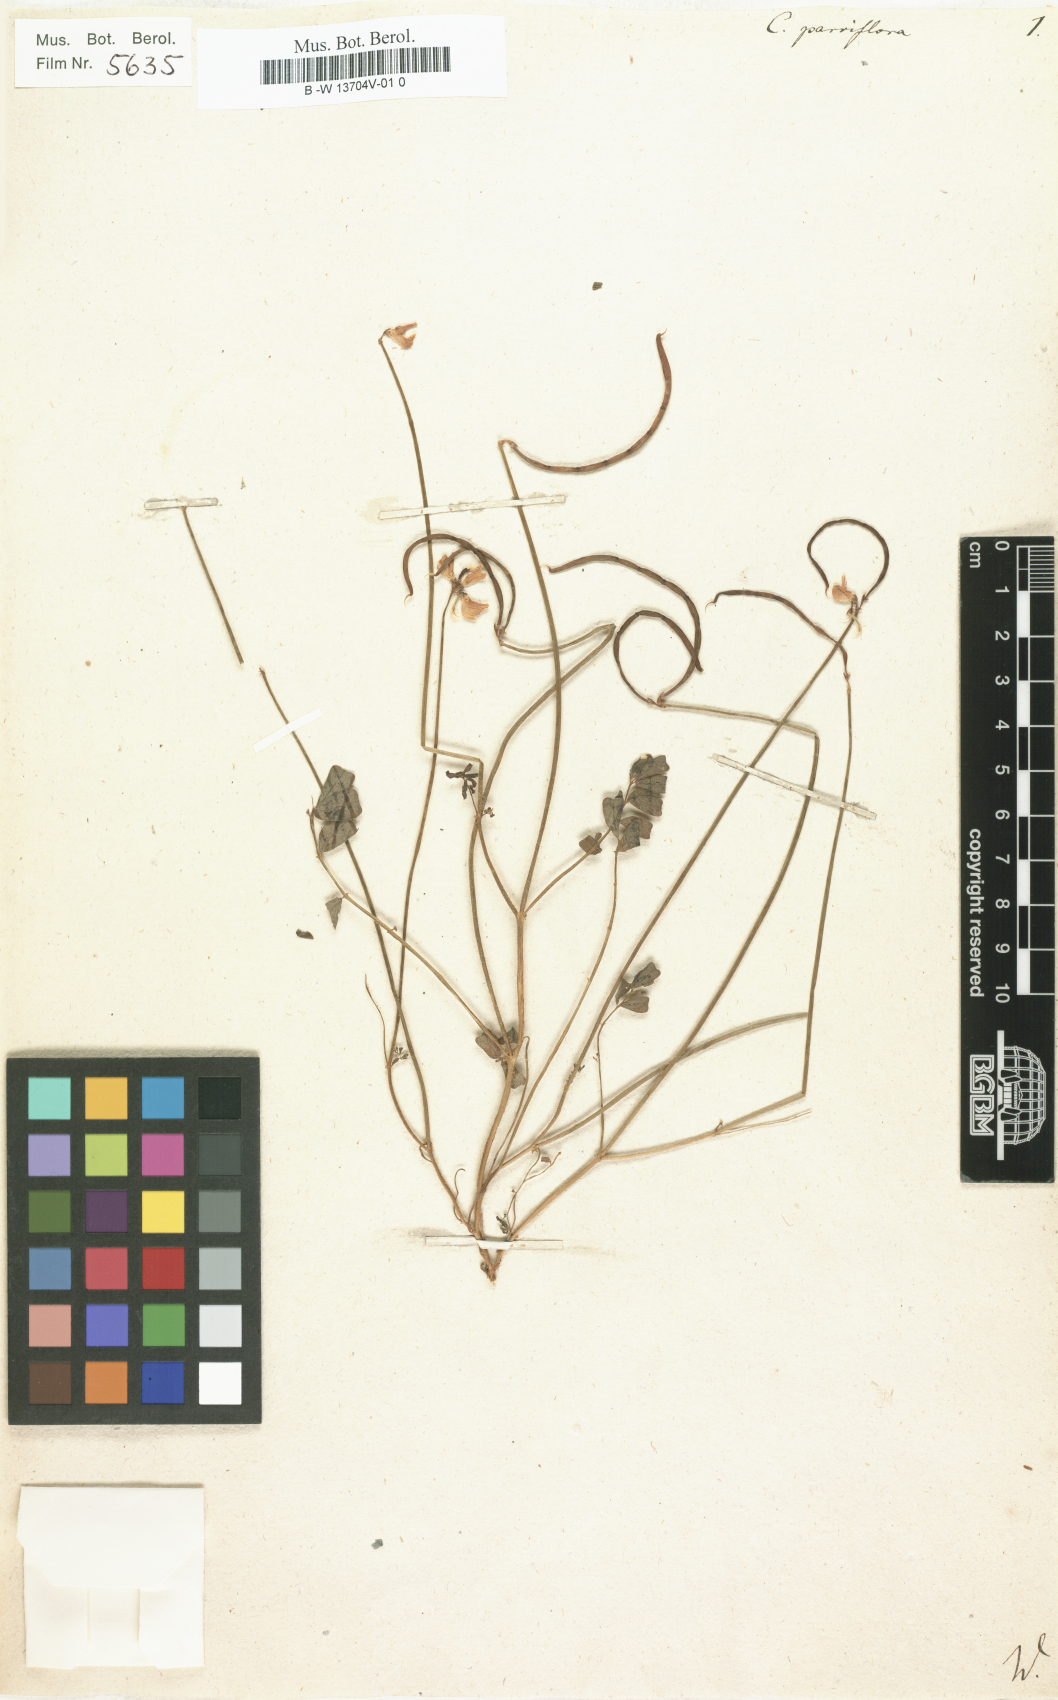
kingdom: Plantae
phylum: Tracheophyta
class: Magnoliopsida
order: Fabales
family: Fabaceae
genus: Coronilla
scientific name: Coronilla
